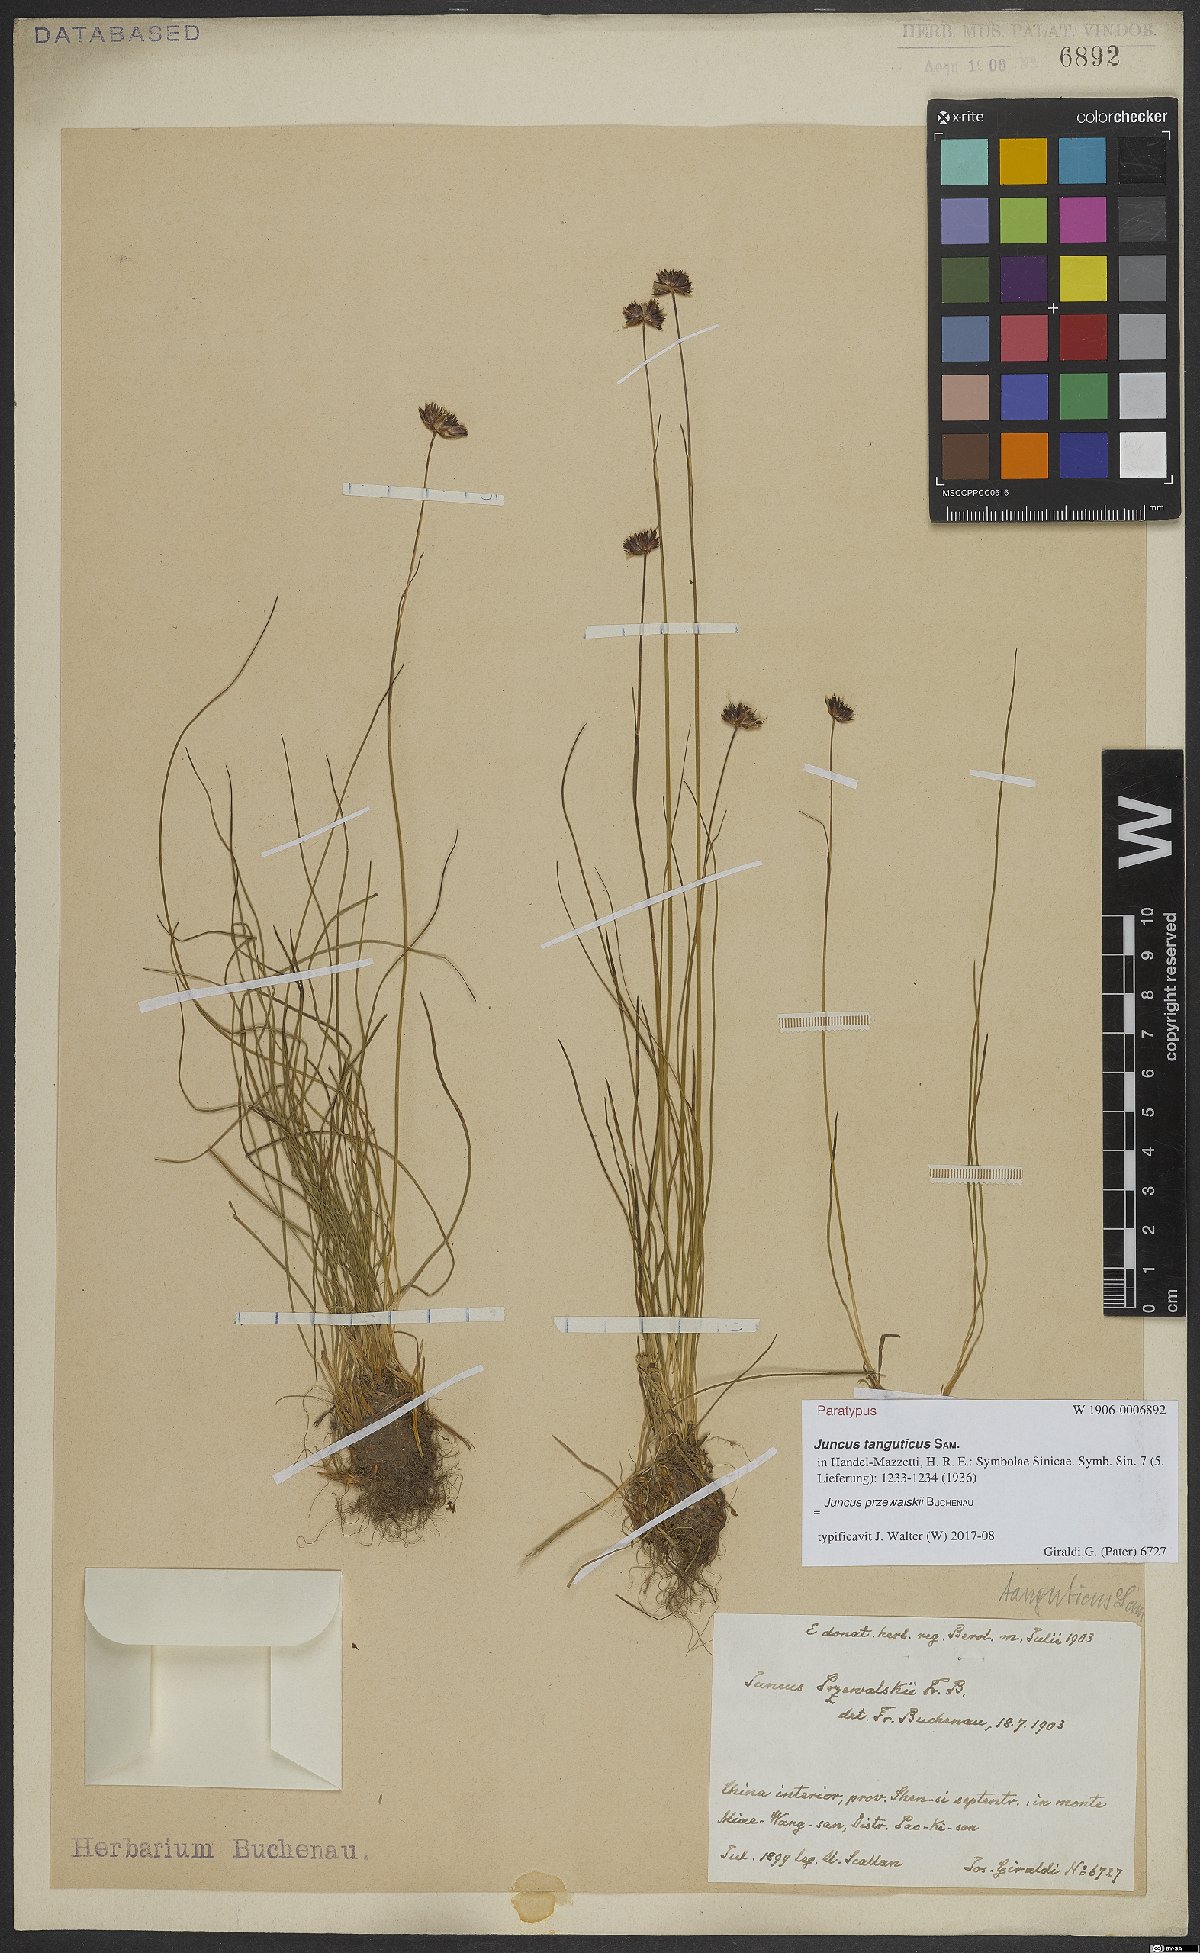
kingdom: Plantae
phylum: Tracheophyta
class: Liliopsida
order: Poales
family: Juncaceae
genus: Juncus
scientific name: Juncus przewalskii
